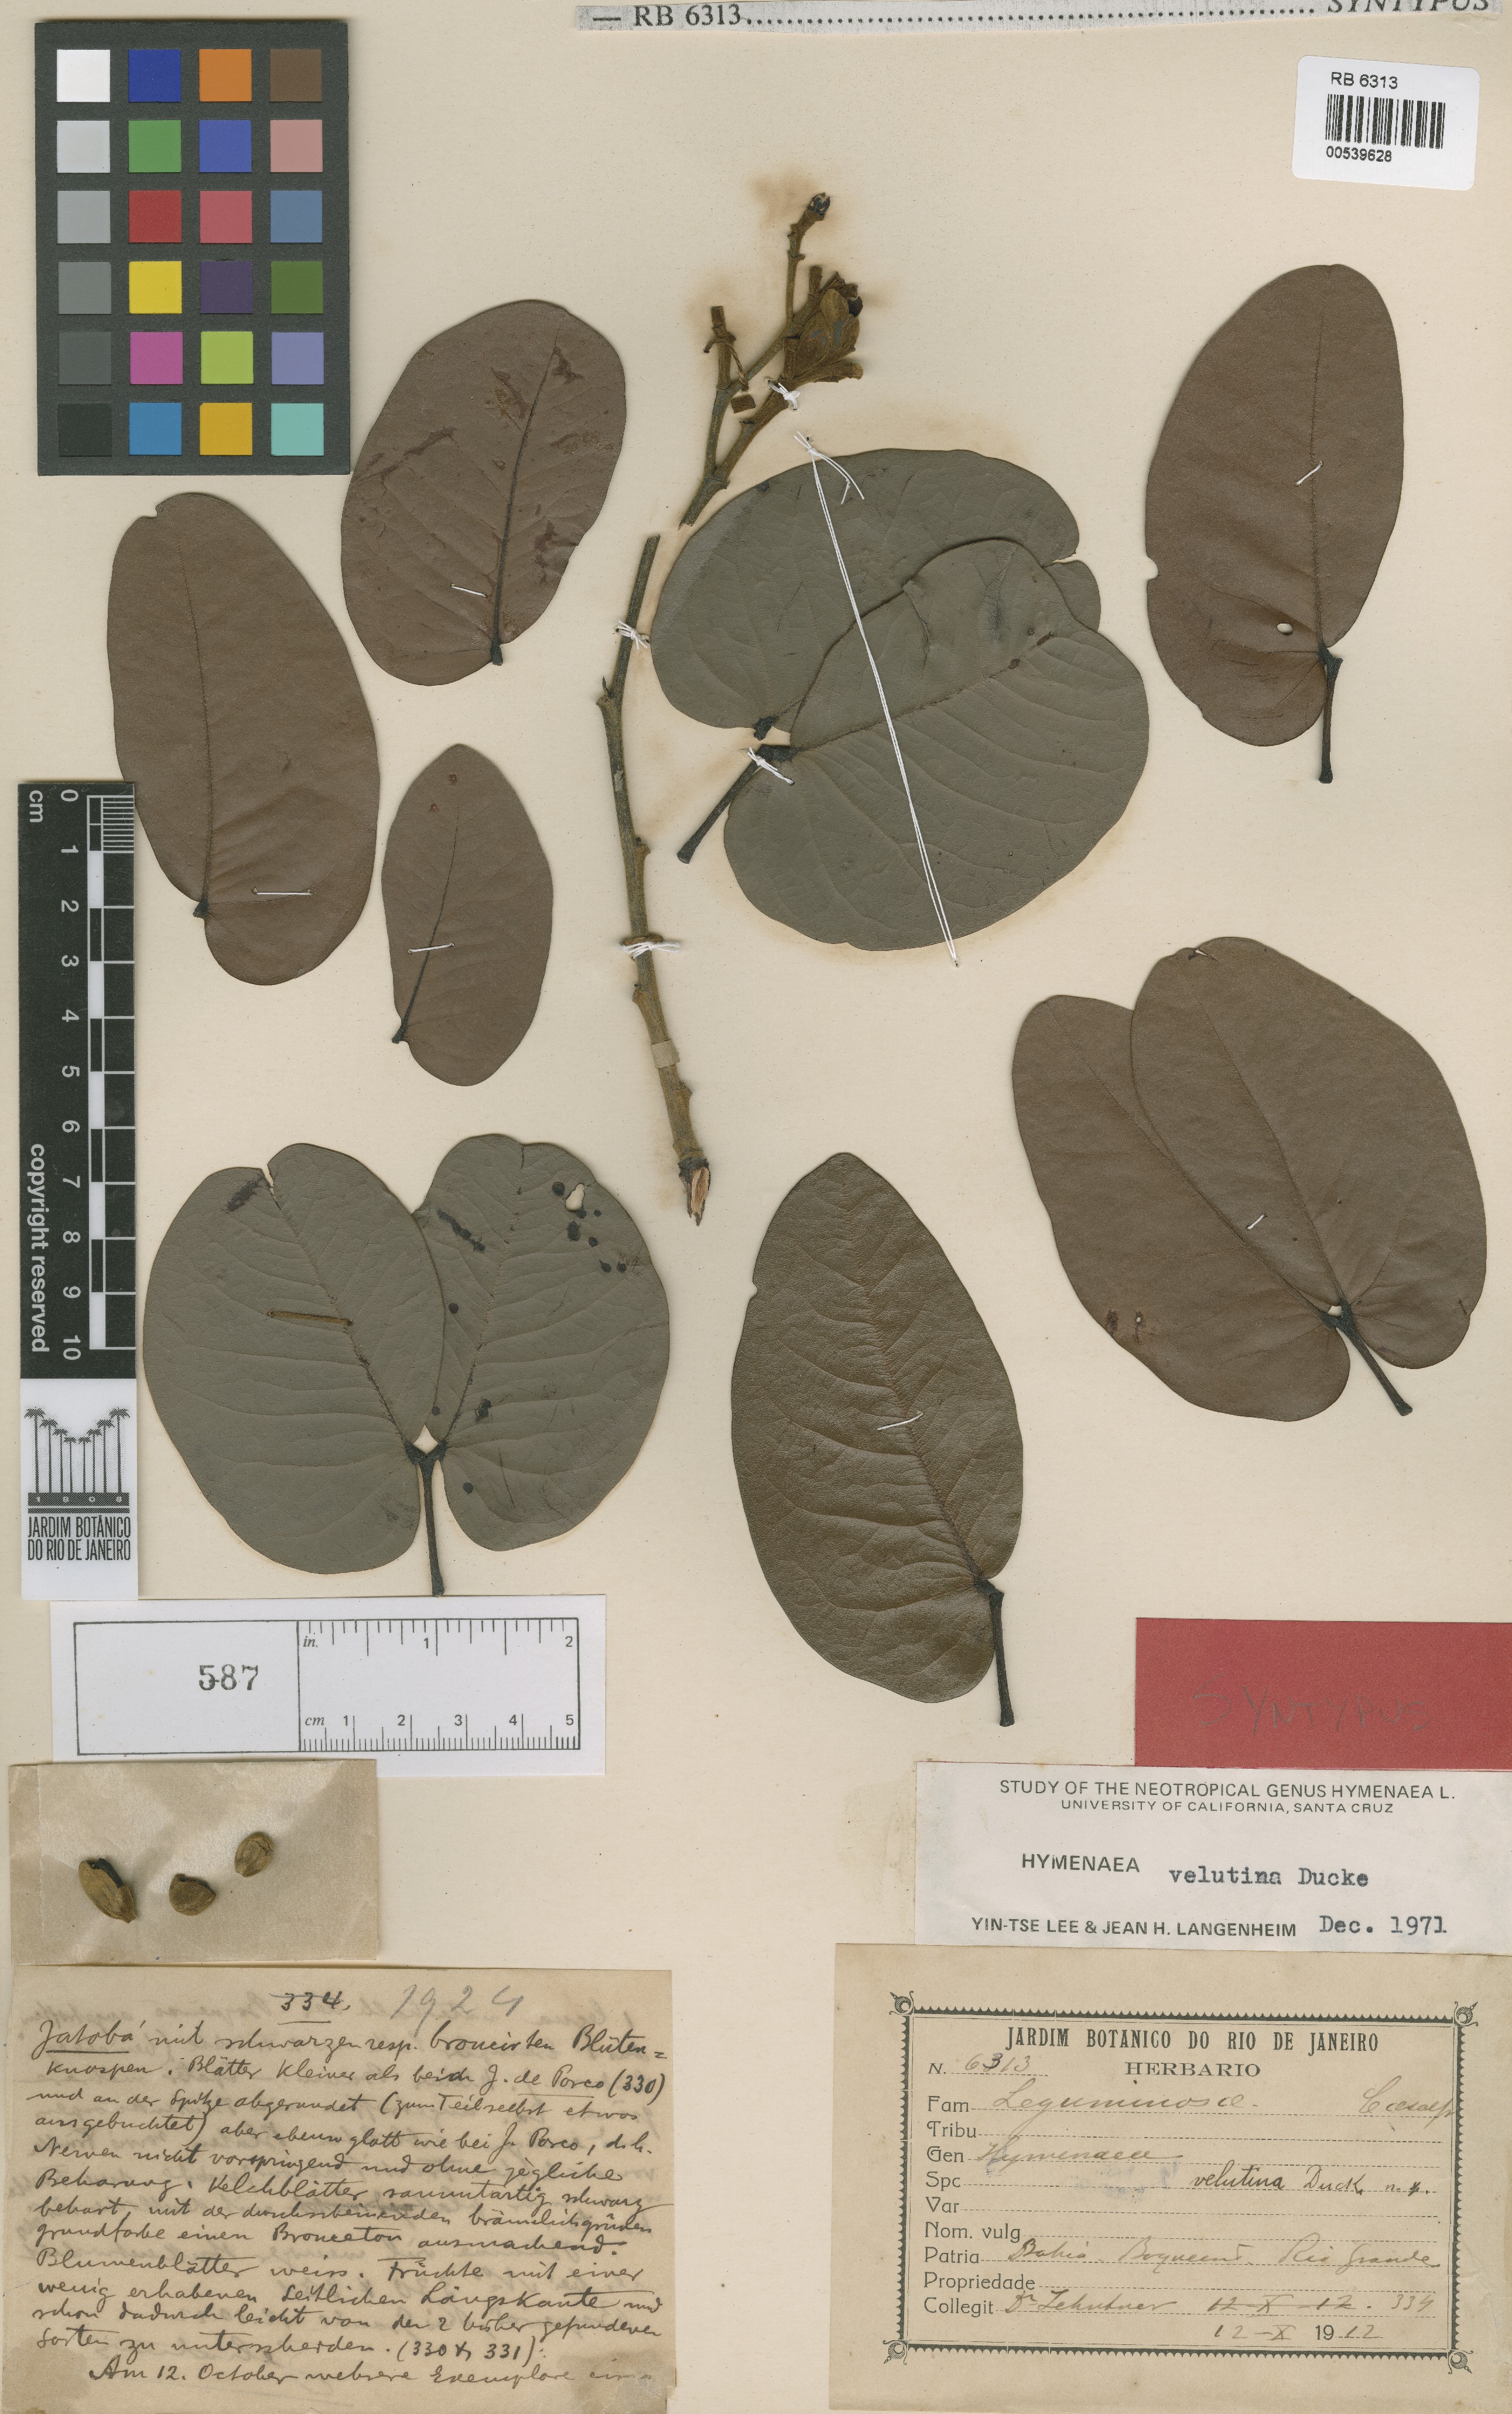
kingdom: Plantae
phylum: Tracheophyta
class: Magnoliopsida
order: Fabales
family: Fabaceae
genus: Hymenaea
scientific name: Hymenaea velutina
